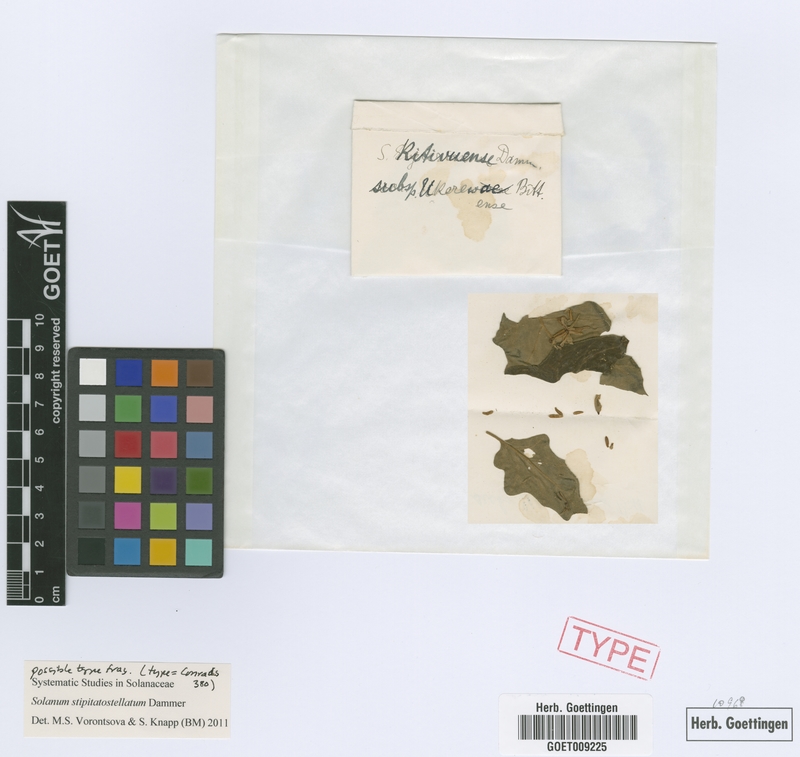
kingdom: Plantae
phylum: Tracheophyta
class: Magnoliopsida
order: Solanales
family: Solanaceae
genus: Solanum
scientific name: Solanum stipitatostellatum
